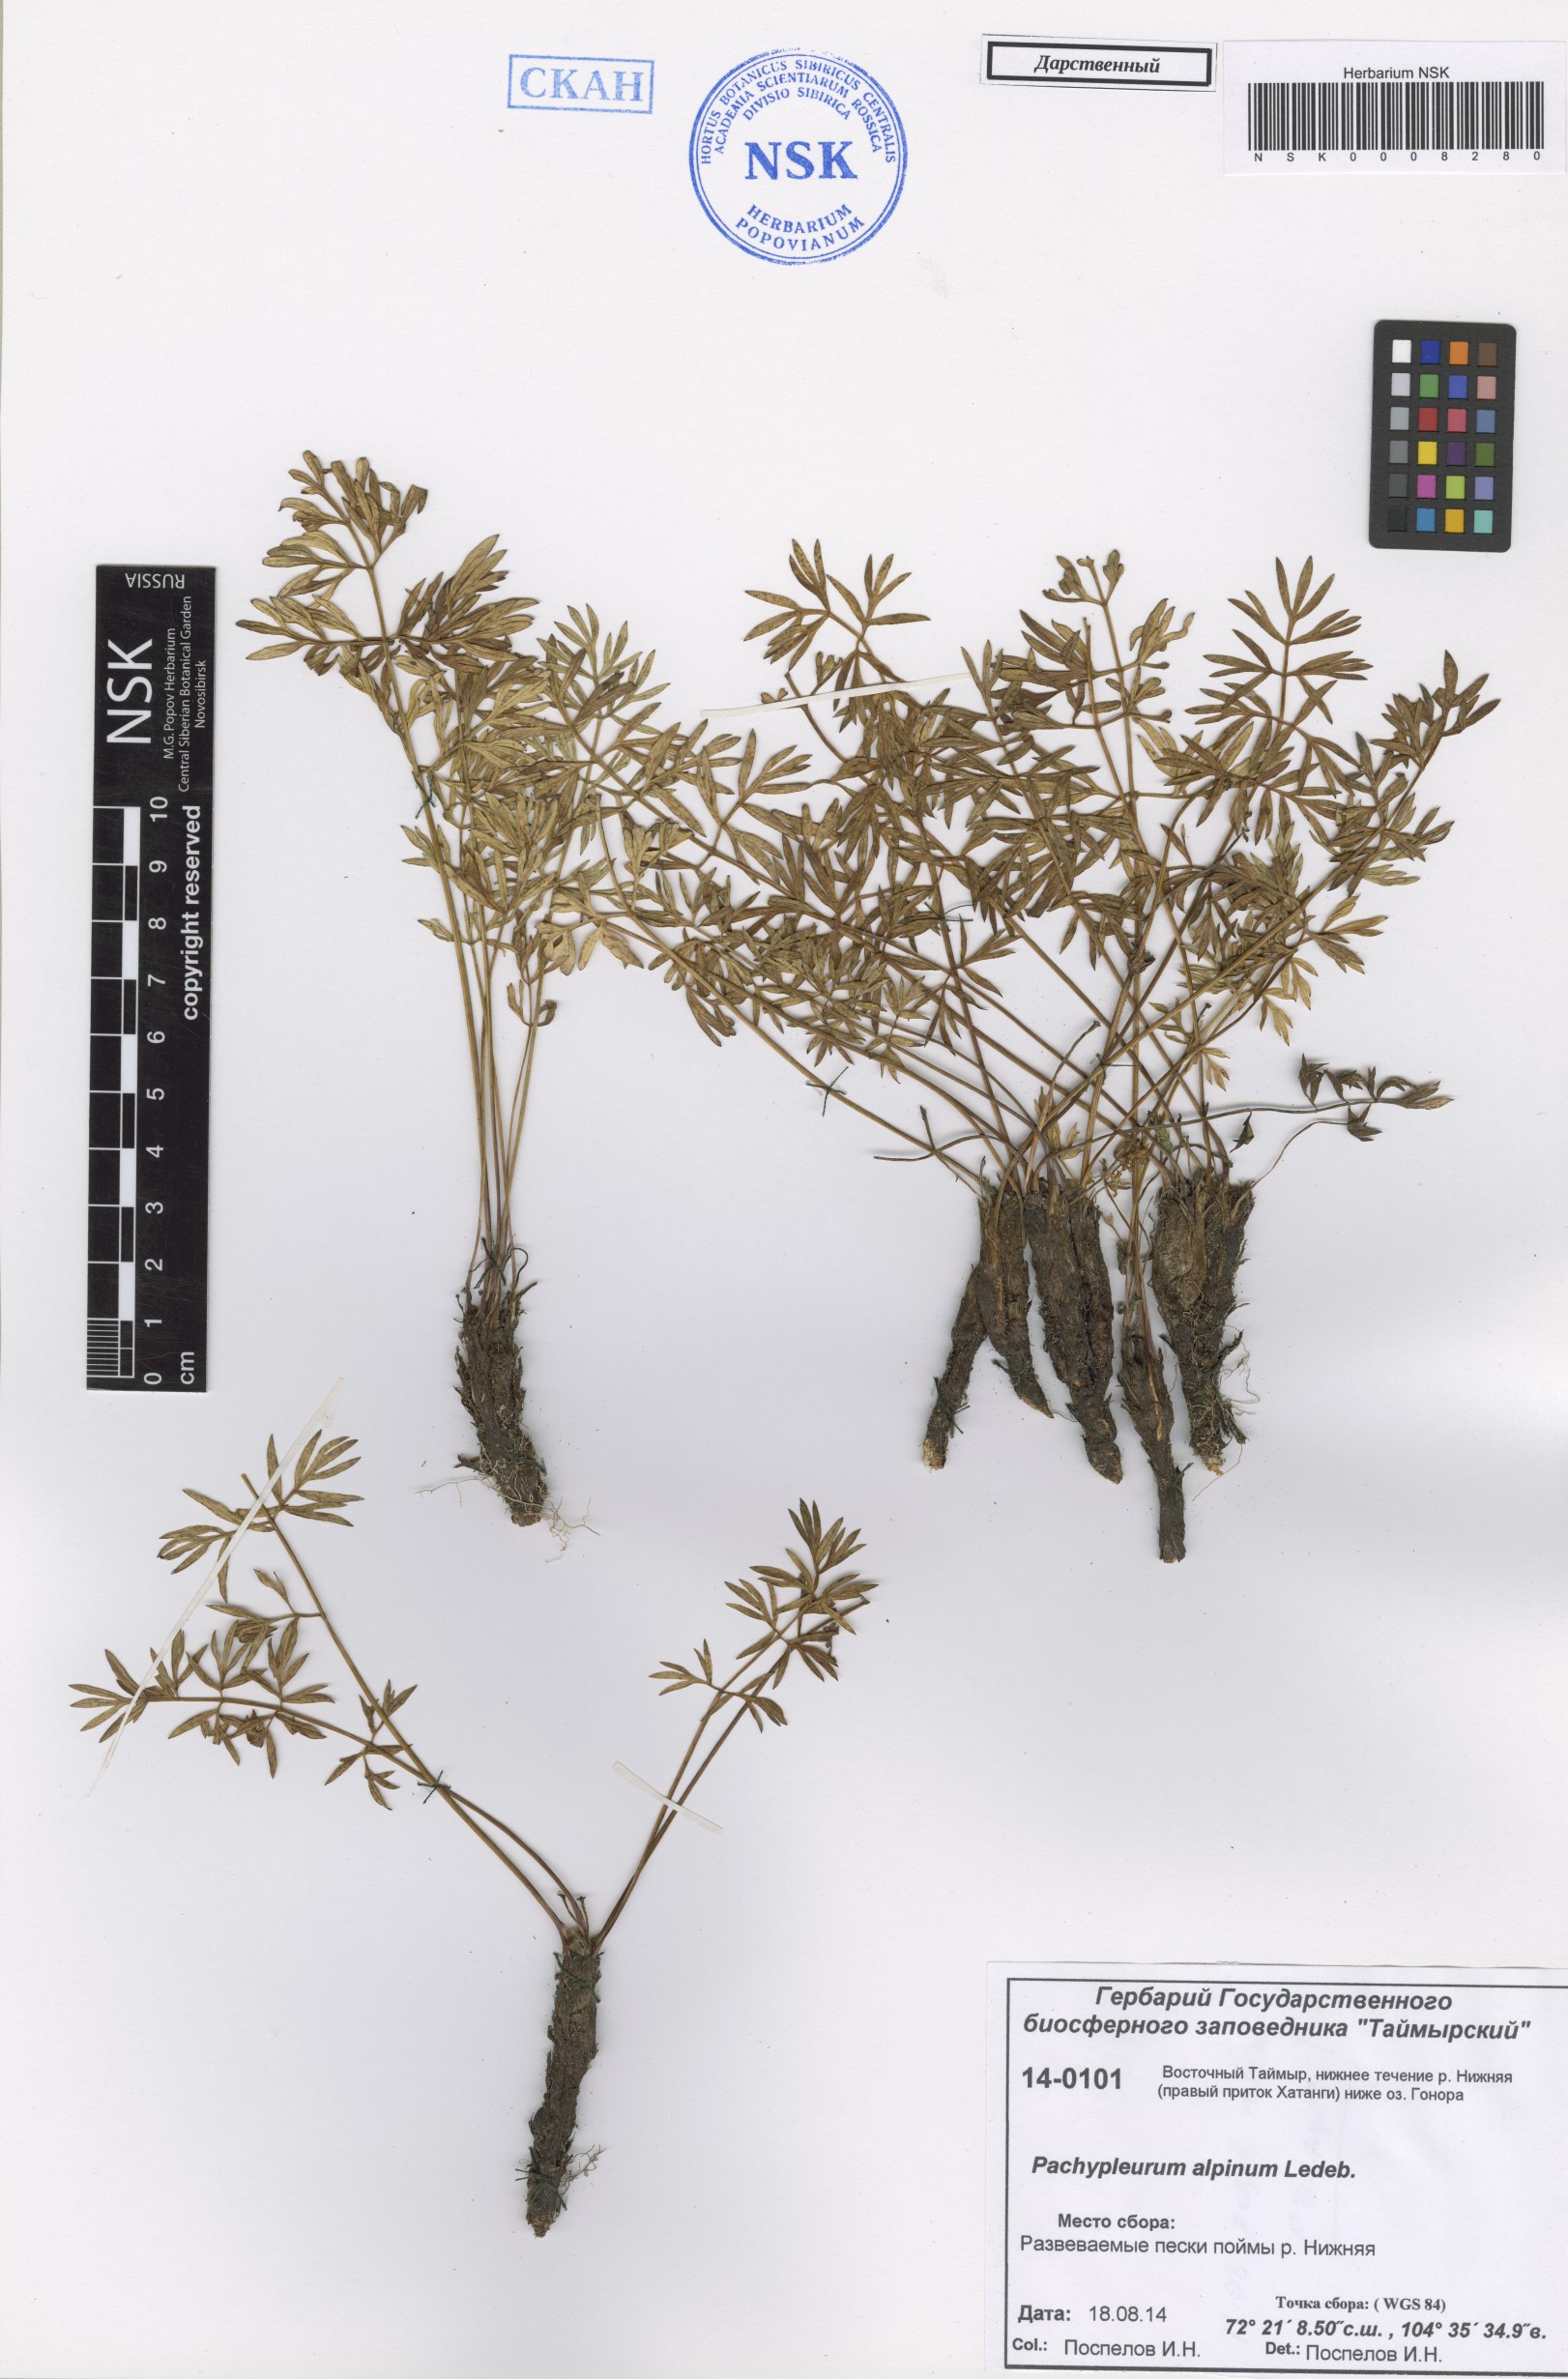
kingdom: Plantae
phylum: Tracheophyta
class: Magnoliopsida
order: Apiales
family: Apiaceae
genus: Pachypleurum
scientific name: Pachypleurum mutellinoides
